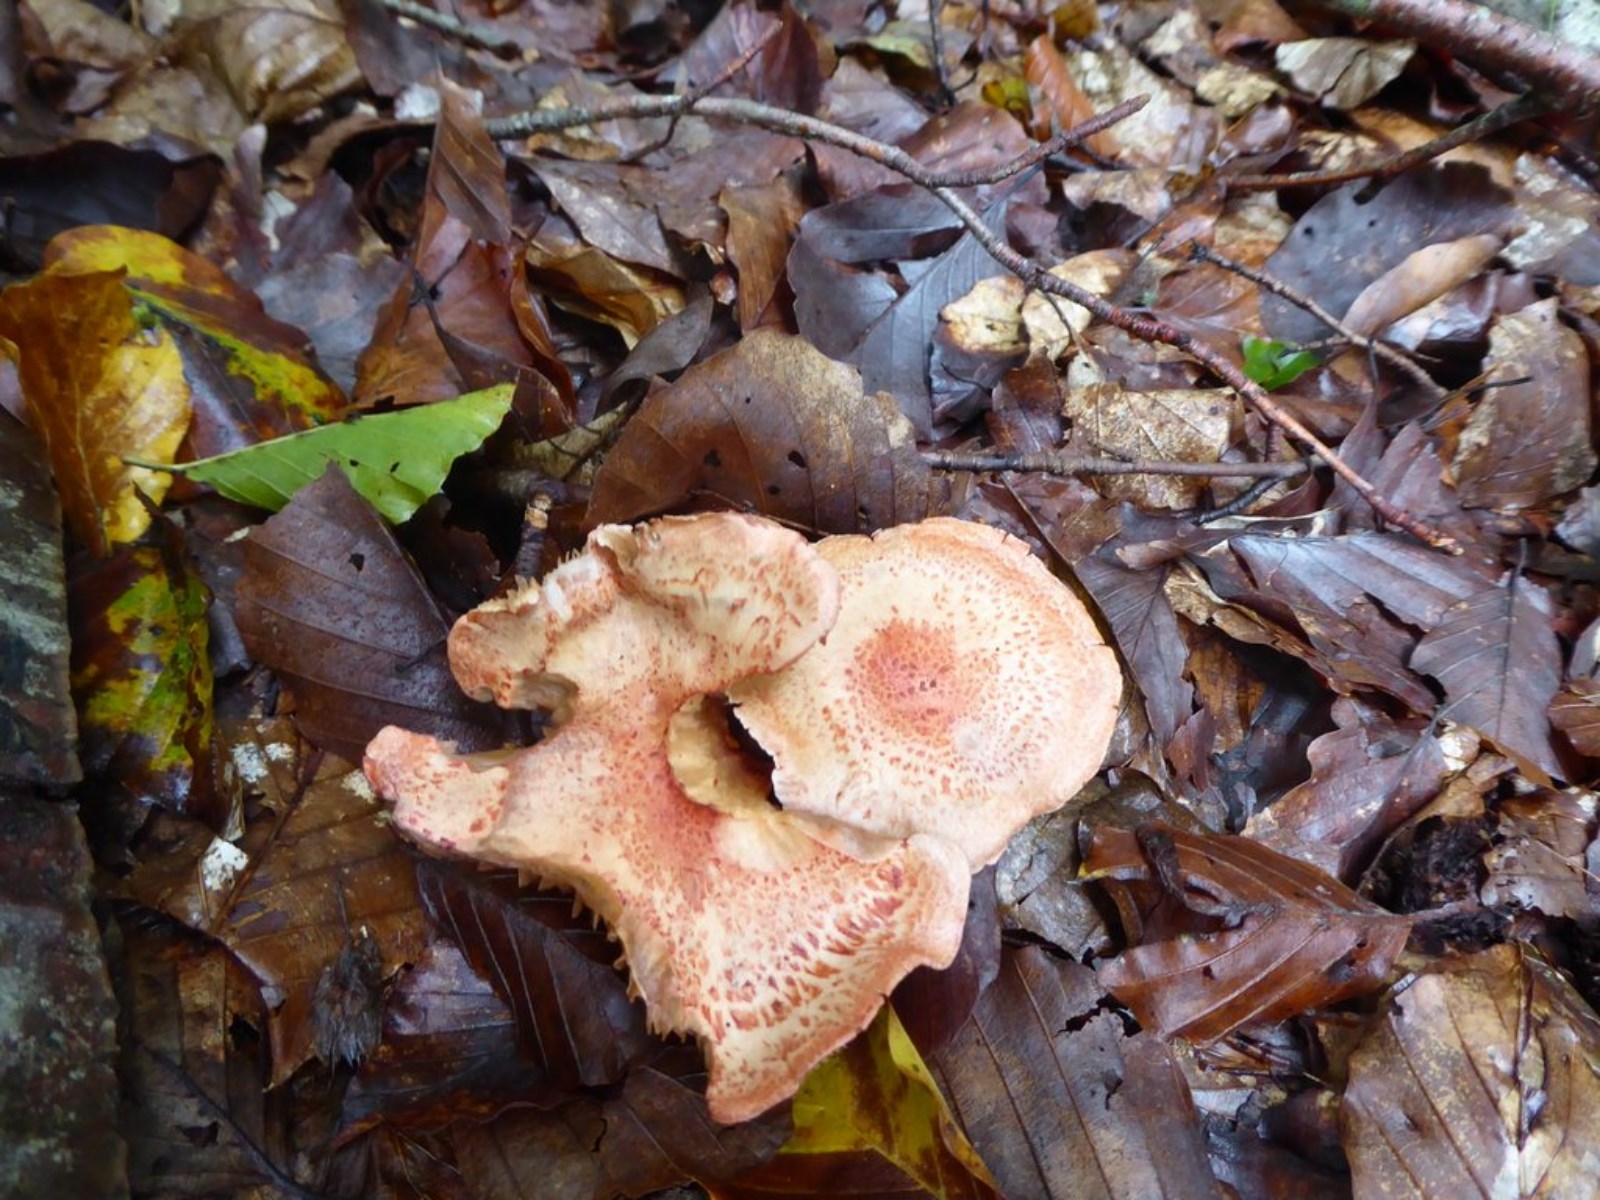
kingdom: Fungi
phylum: Basidiomycota
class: Agaricomycetes
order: Agaricales
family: Cortinariaceae
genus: Cortinarius
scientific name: Cortinarius bolaris
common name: cinnoberskællet slørhat
